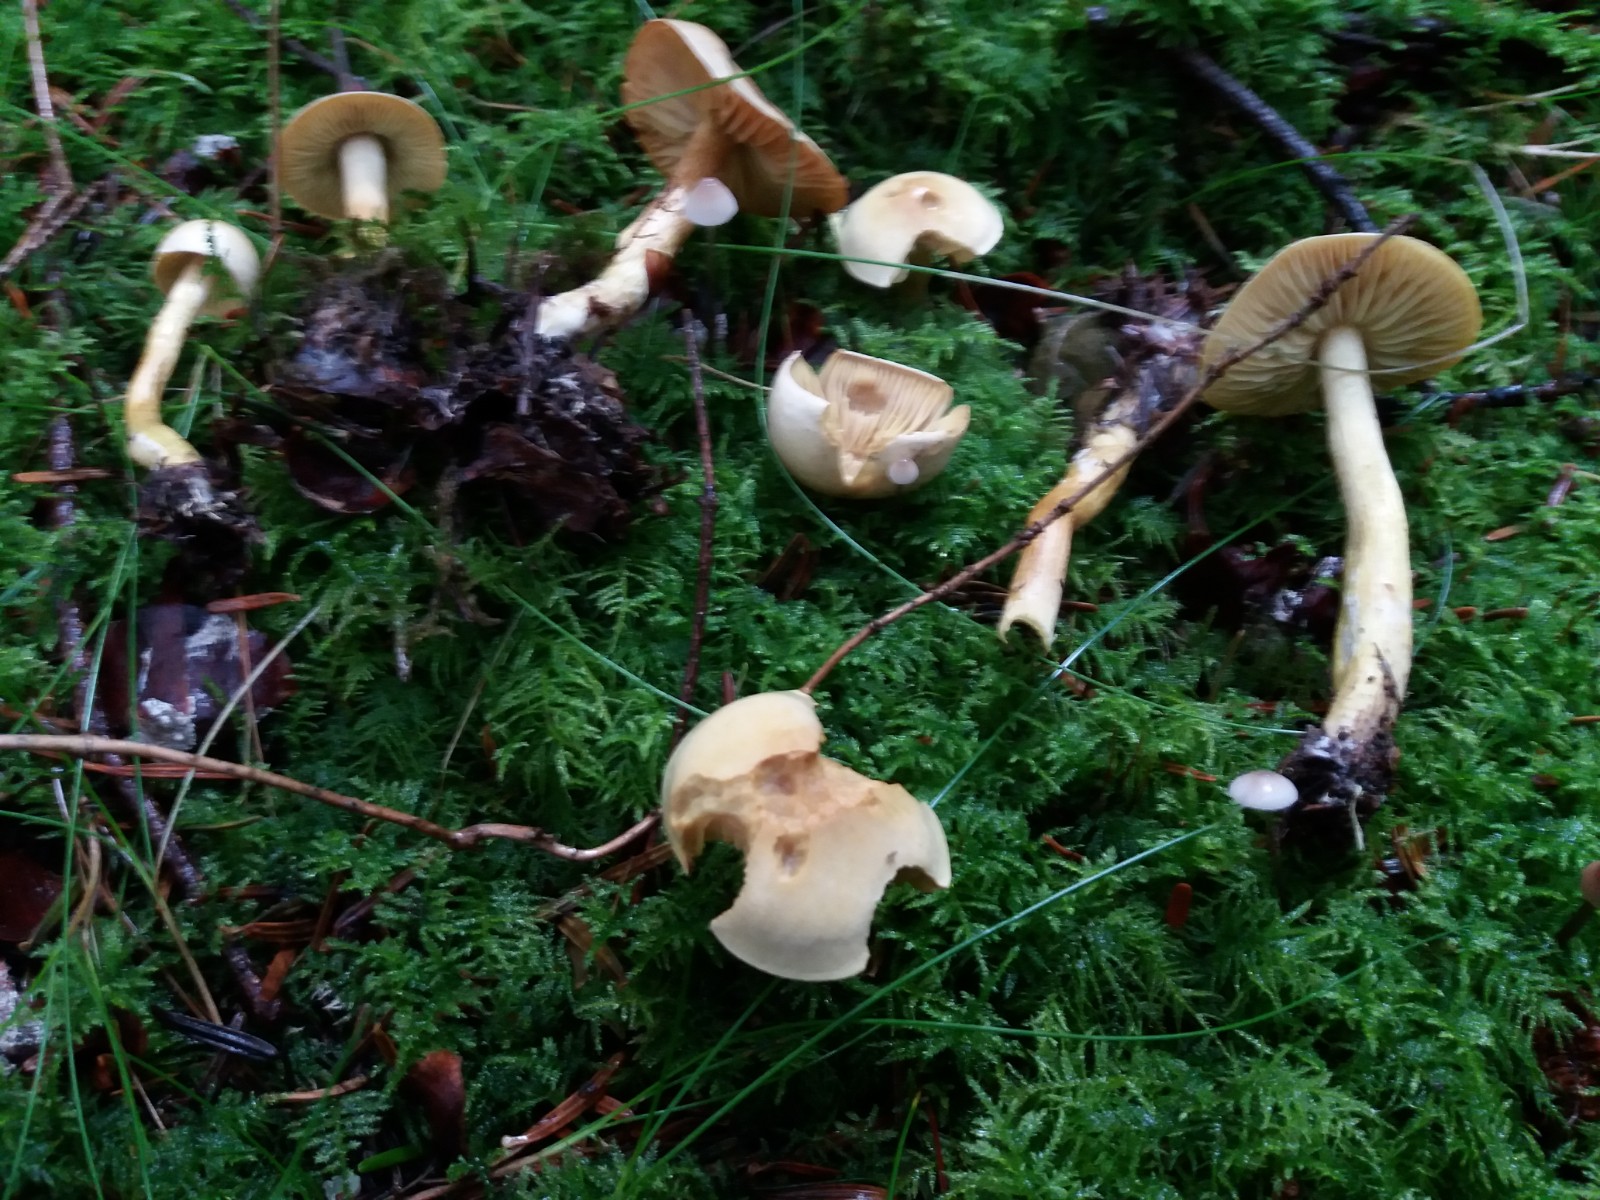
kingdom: Fungi
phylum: Basidiomycota
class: Agaricomycetes
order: Agaricales
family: Tricholomataceae
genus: Tricholoma
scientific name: Tricholoma sulphureum
